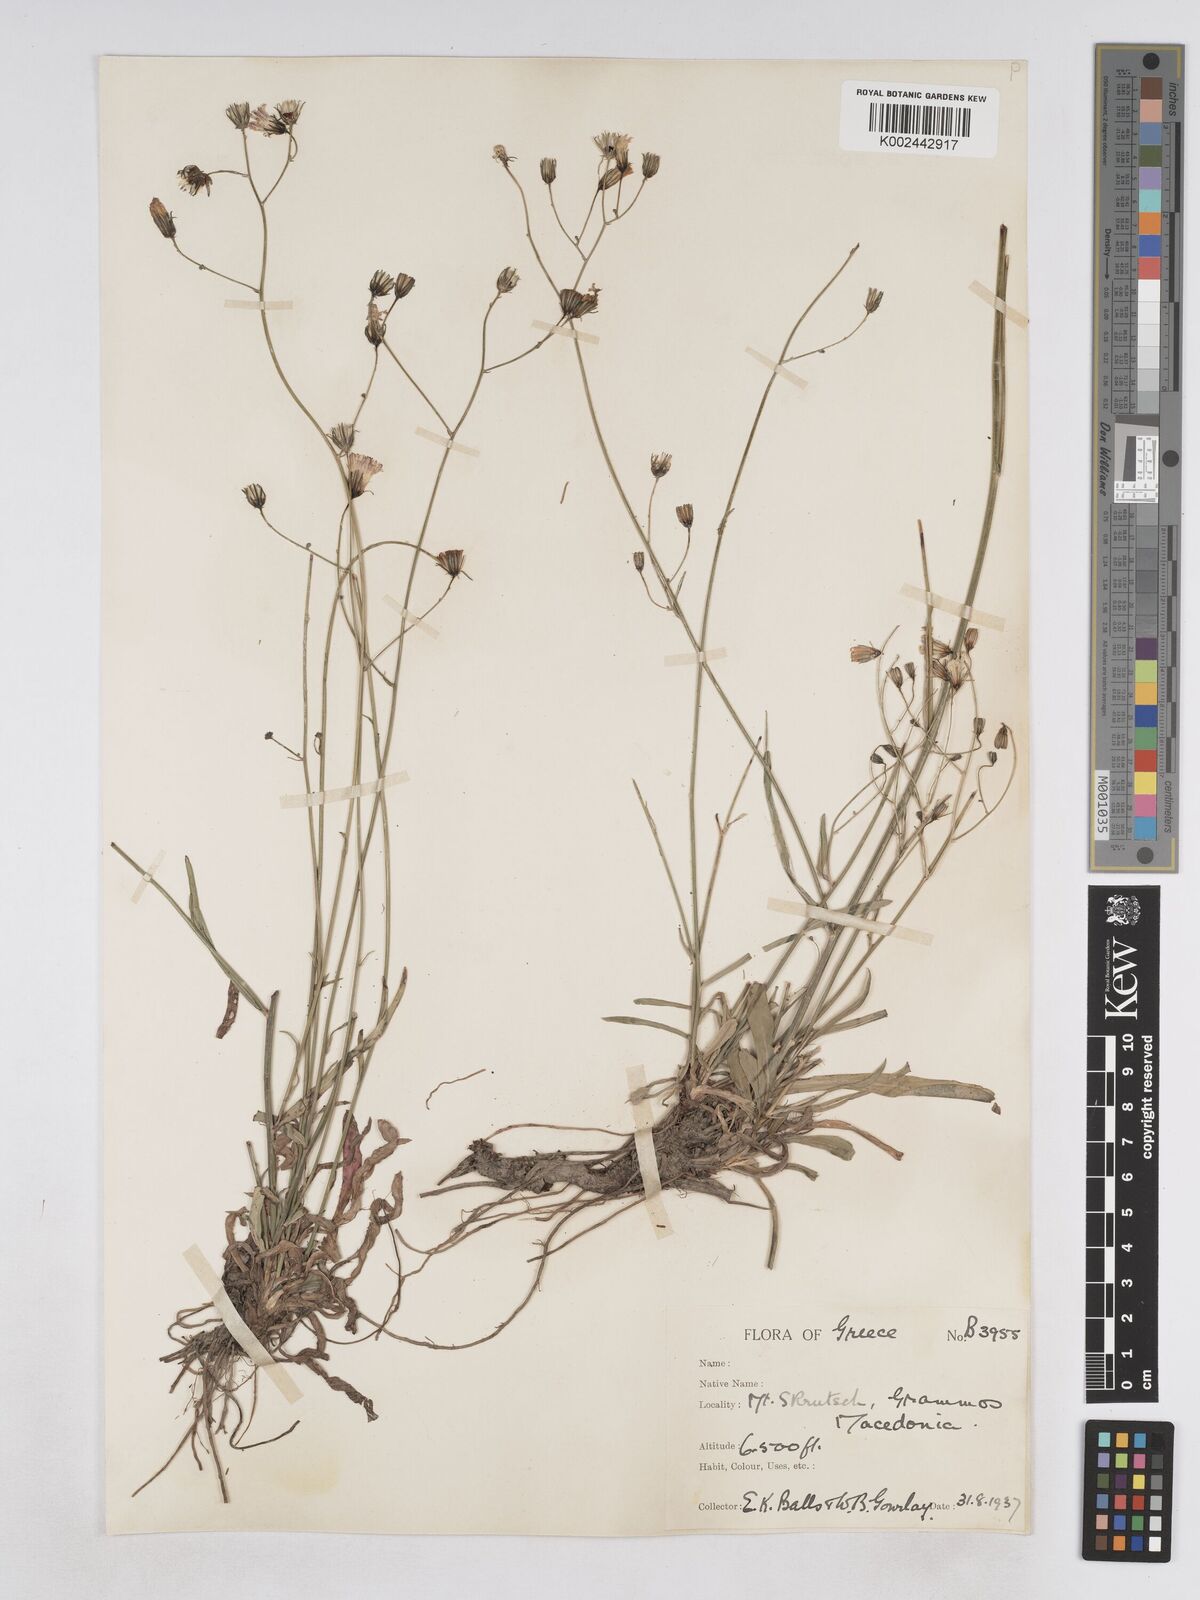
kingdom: Plantae
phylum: Tracheophyta
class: Magnoliopsida
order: Asterales
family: Asteraceae
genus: Pilosella
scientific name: Pilosella pavichii
